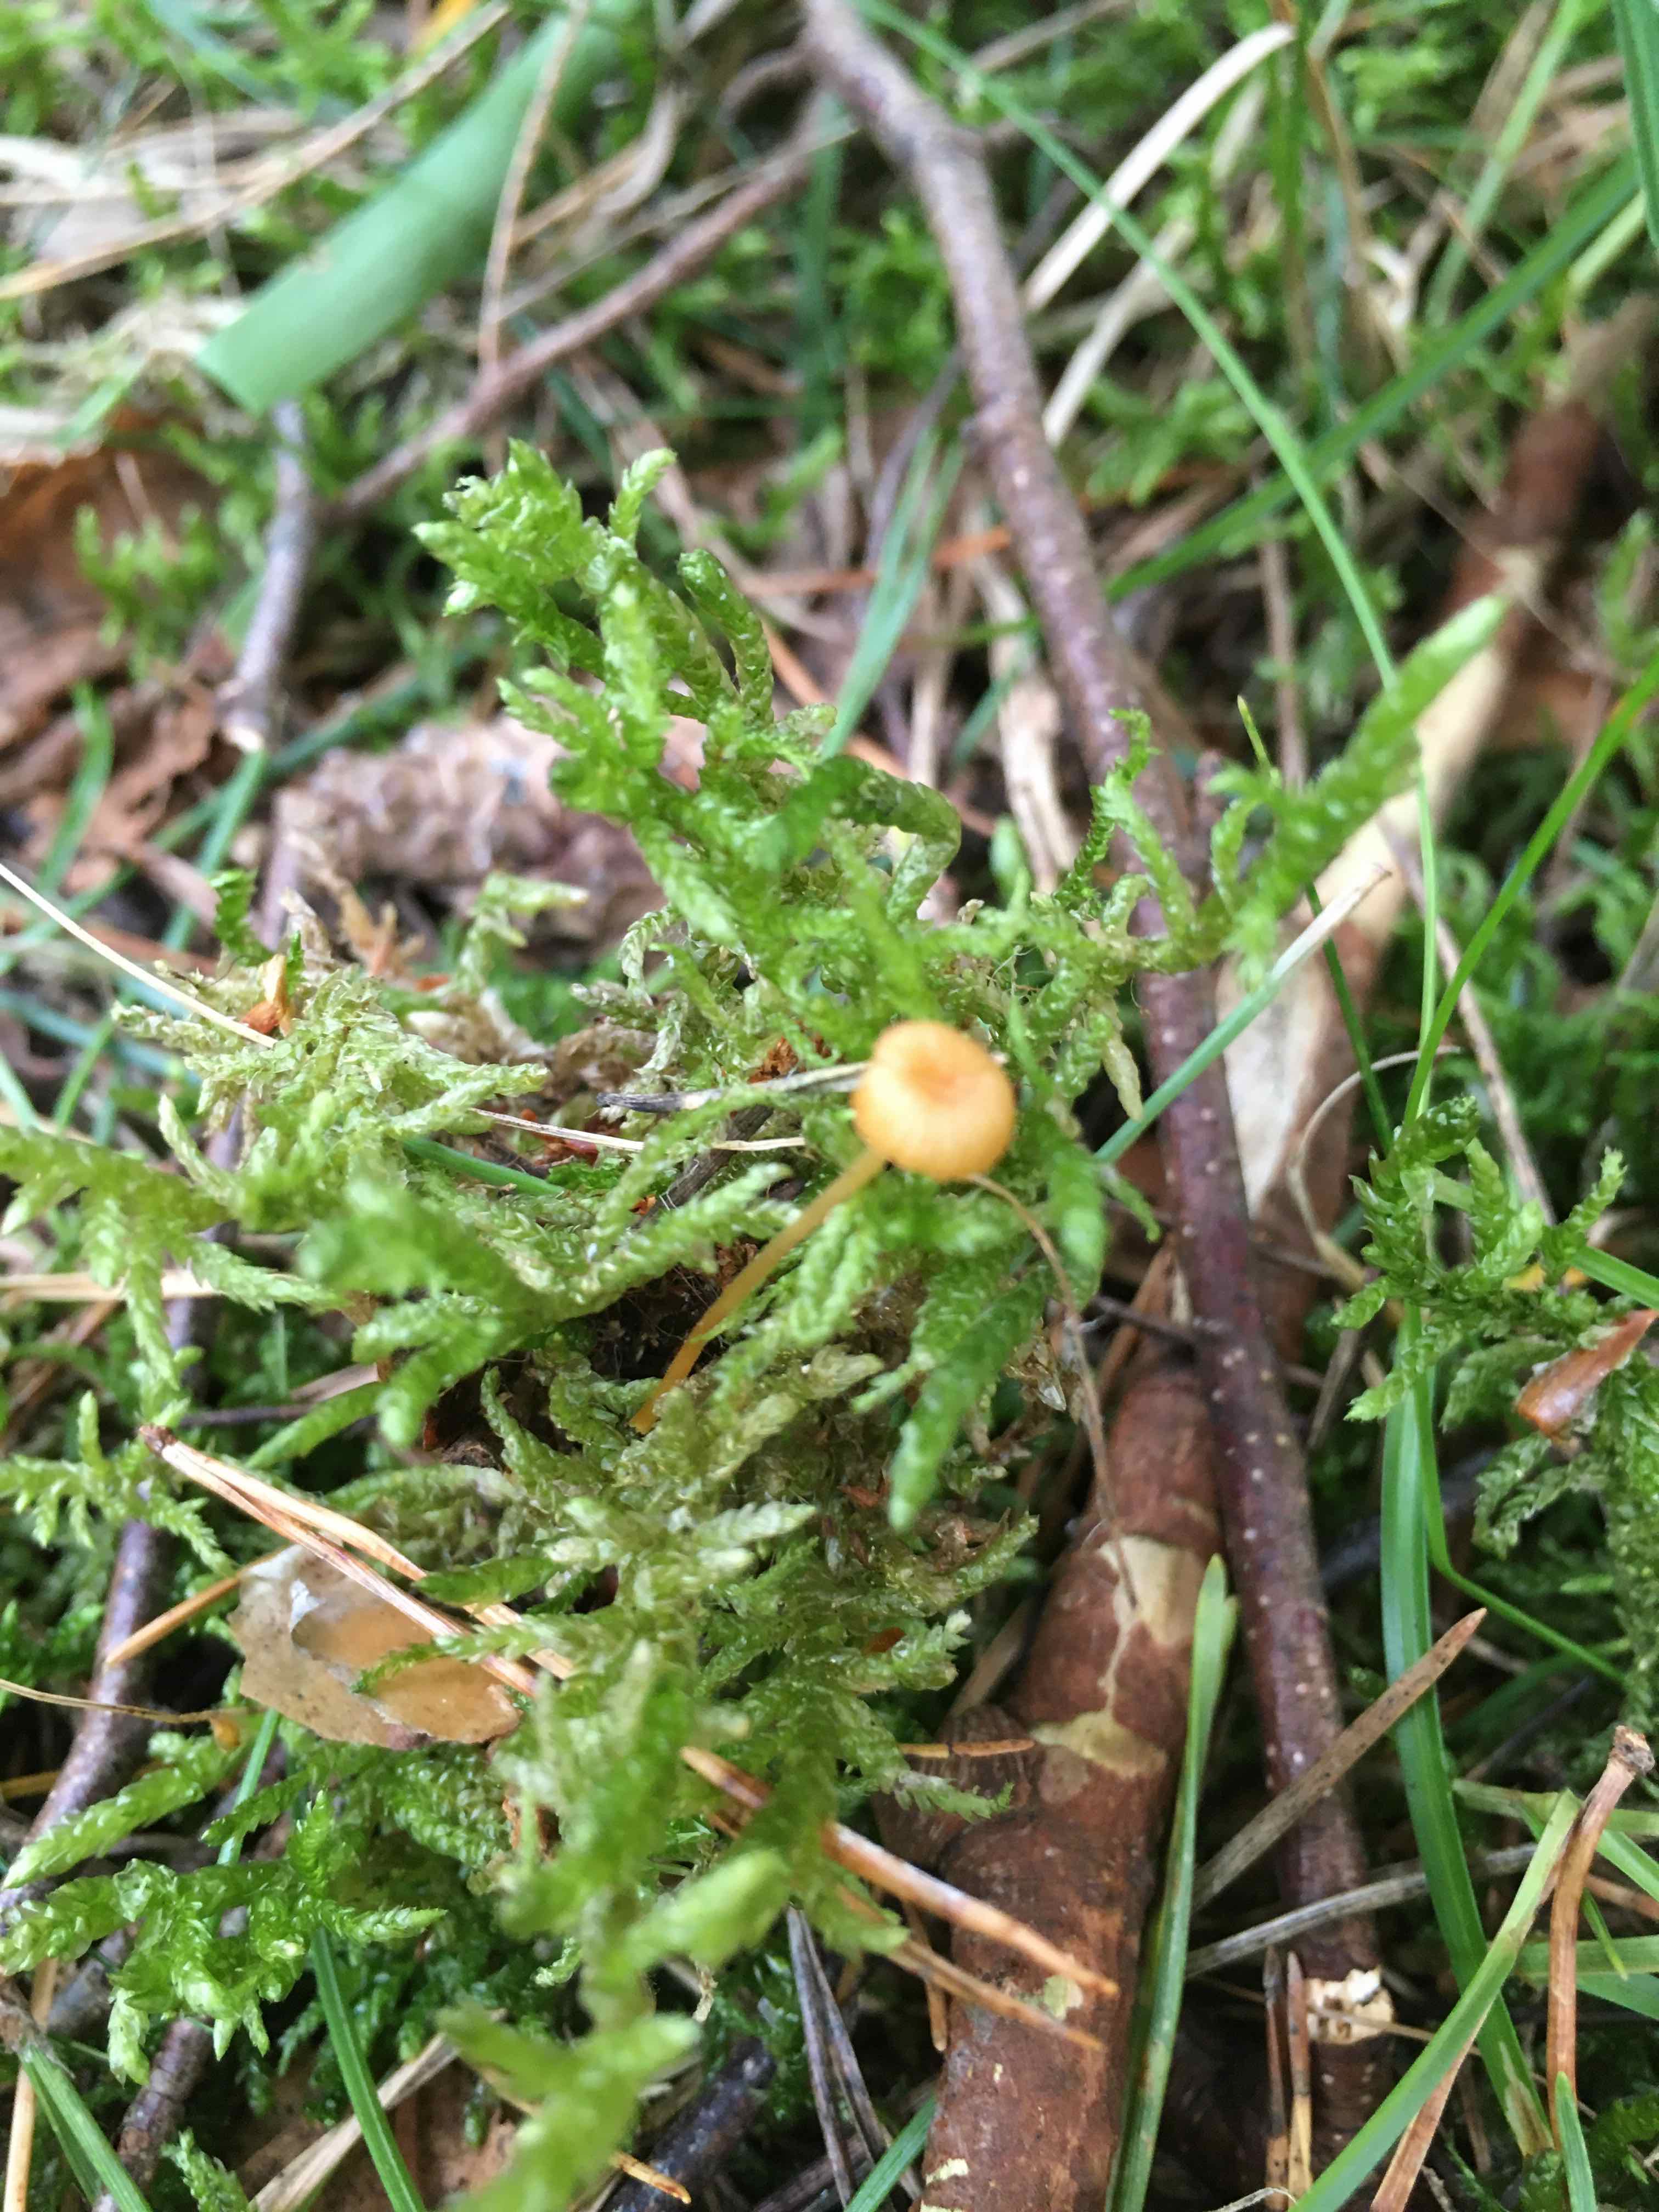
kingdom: Fungi
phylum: Basidiomycota
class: Agaricomycetes
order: Hymenochaetales
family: Rickenellaceae
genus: Rickenella
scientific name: Rickenella fibula
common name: orange mosnavlehat
